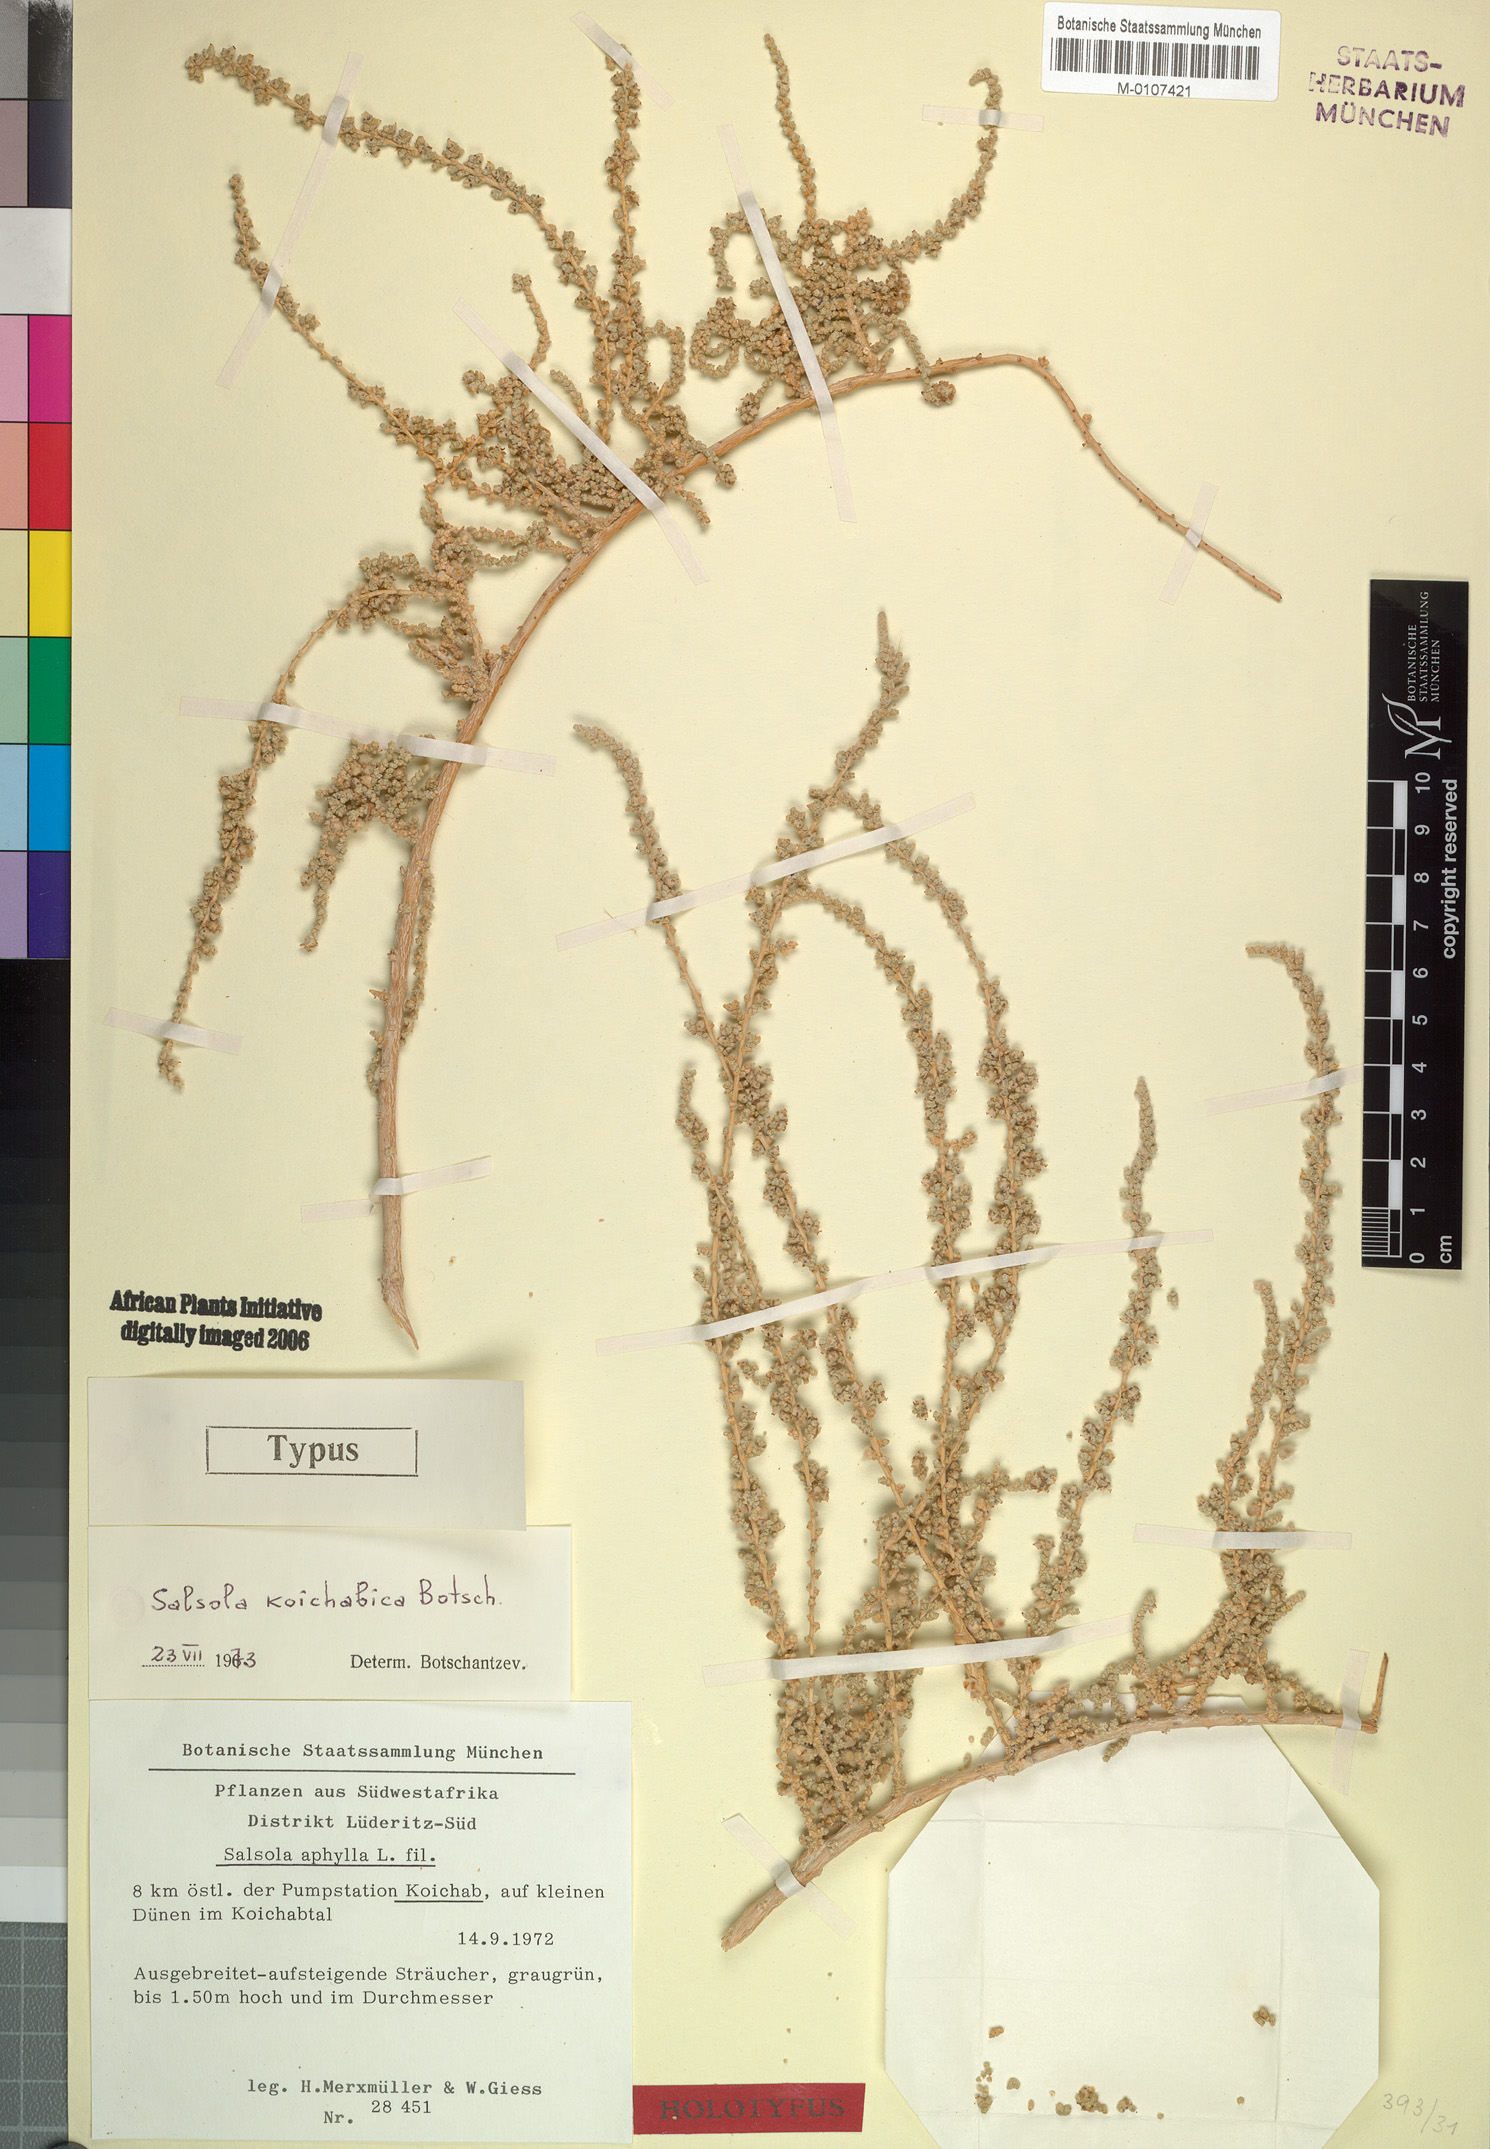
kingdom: Plantae
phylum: Tracheophyta
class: Magnoliopsida
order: Caryophyllales
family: Amaranthaceae
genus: Caroxylon
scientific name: Caroxylon koichabicum
